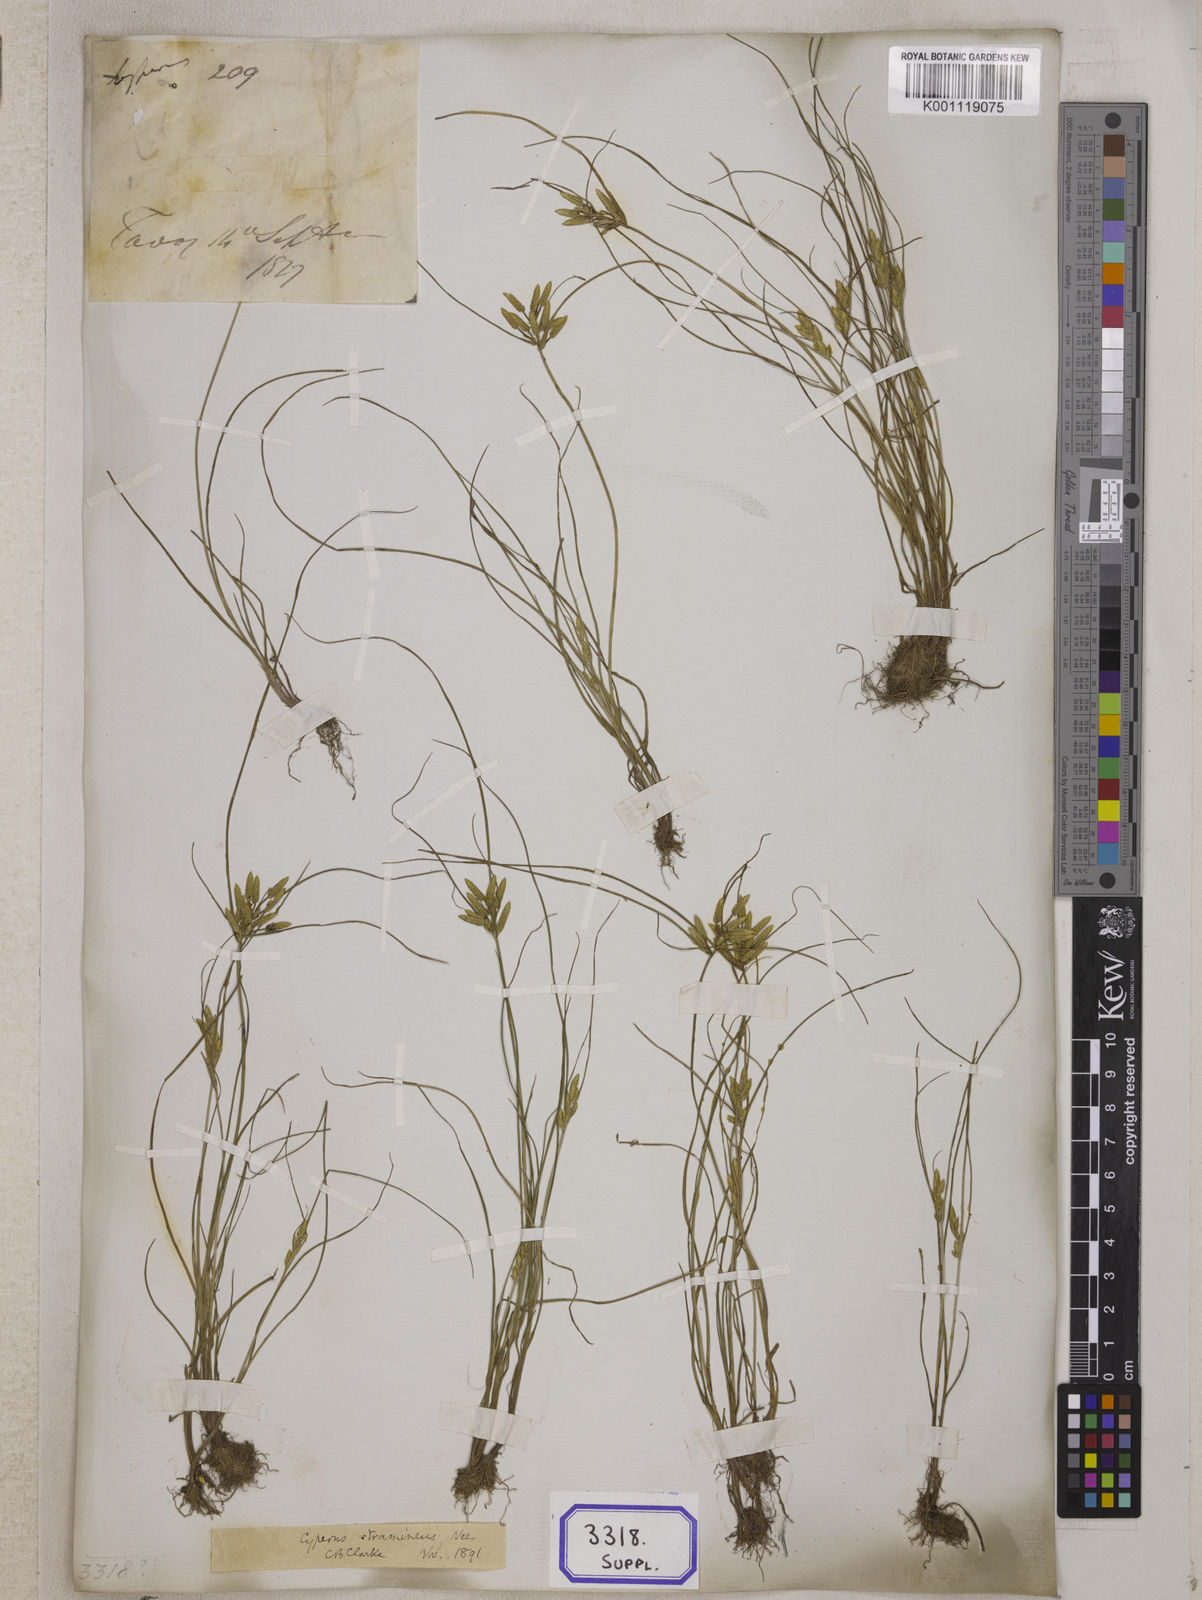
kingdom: Plantae
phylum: Tracheophyta
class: Liliopsida
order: Poales
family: Cyperaceae
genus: Cyperus
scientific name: Cyperus
